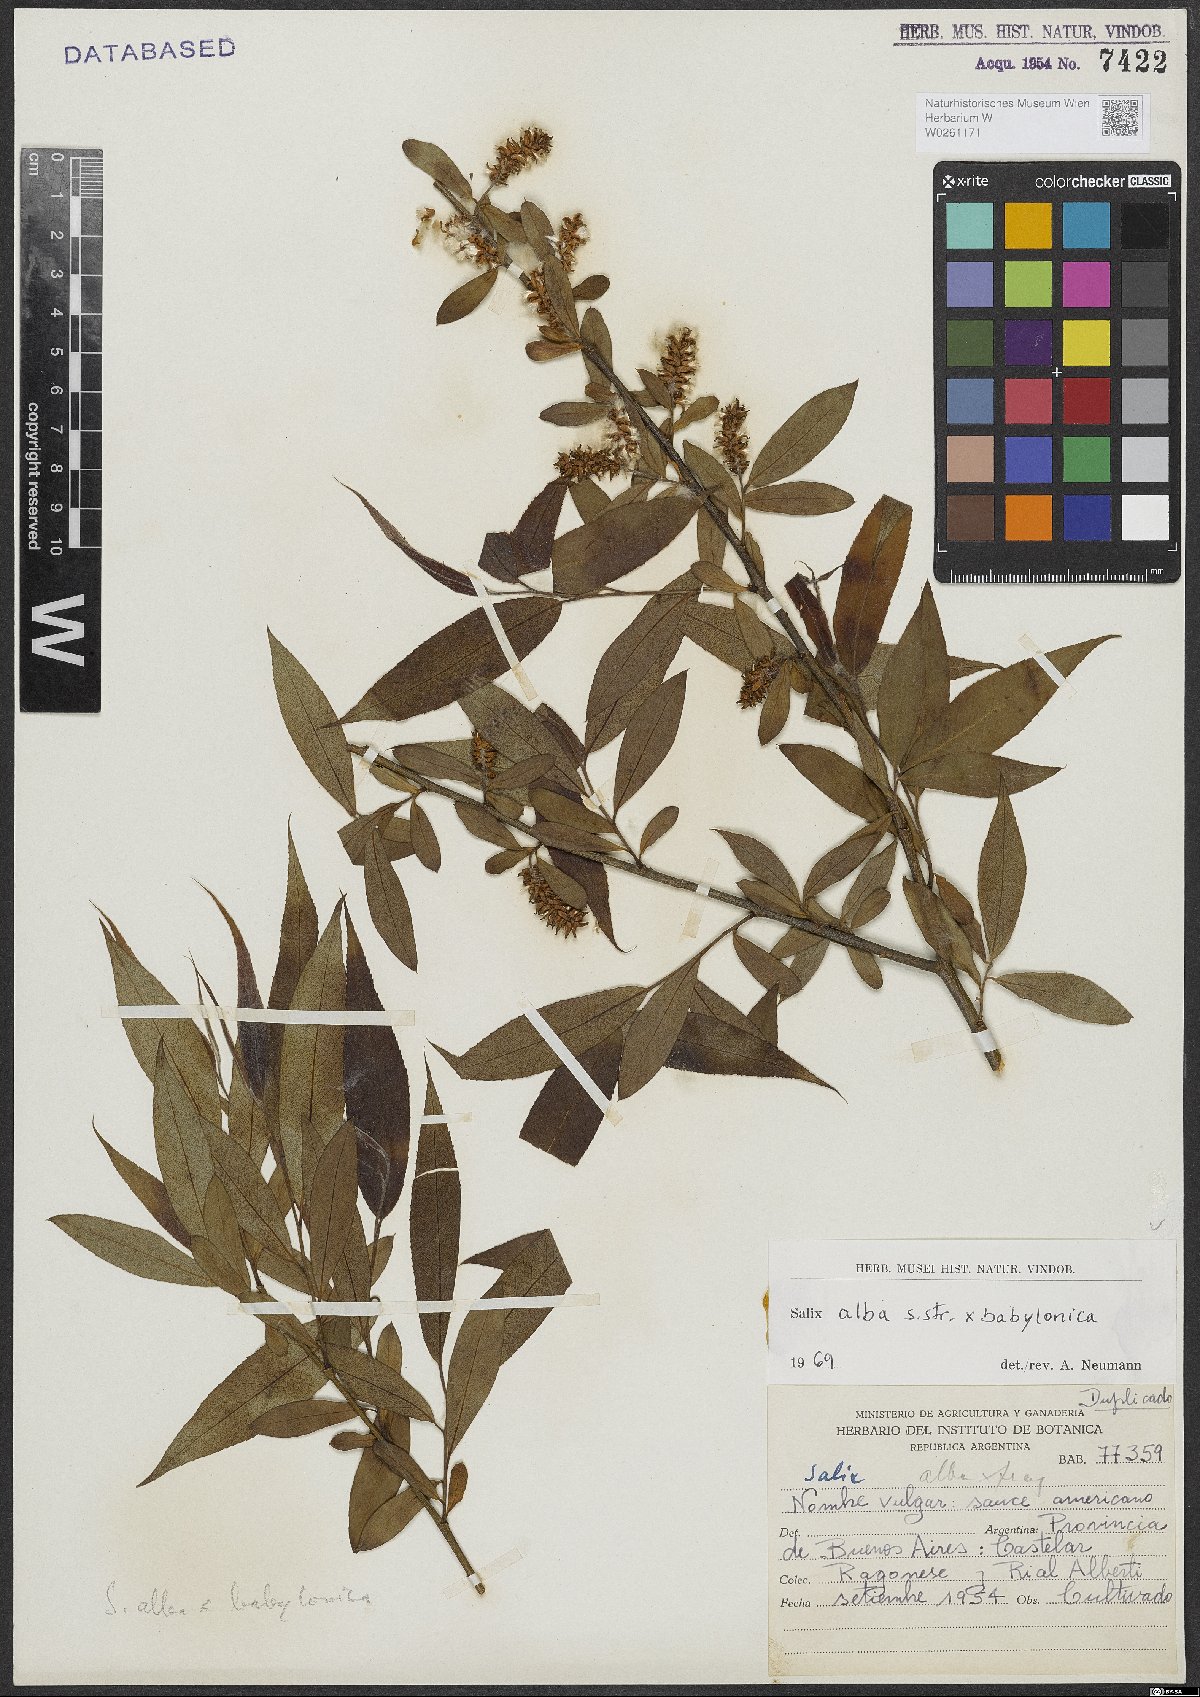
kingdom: Plantae
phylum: Tracheophyta
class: Magnoliopsida
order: Malpighiales
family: Salicaceae
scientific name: Salicaceae
